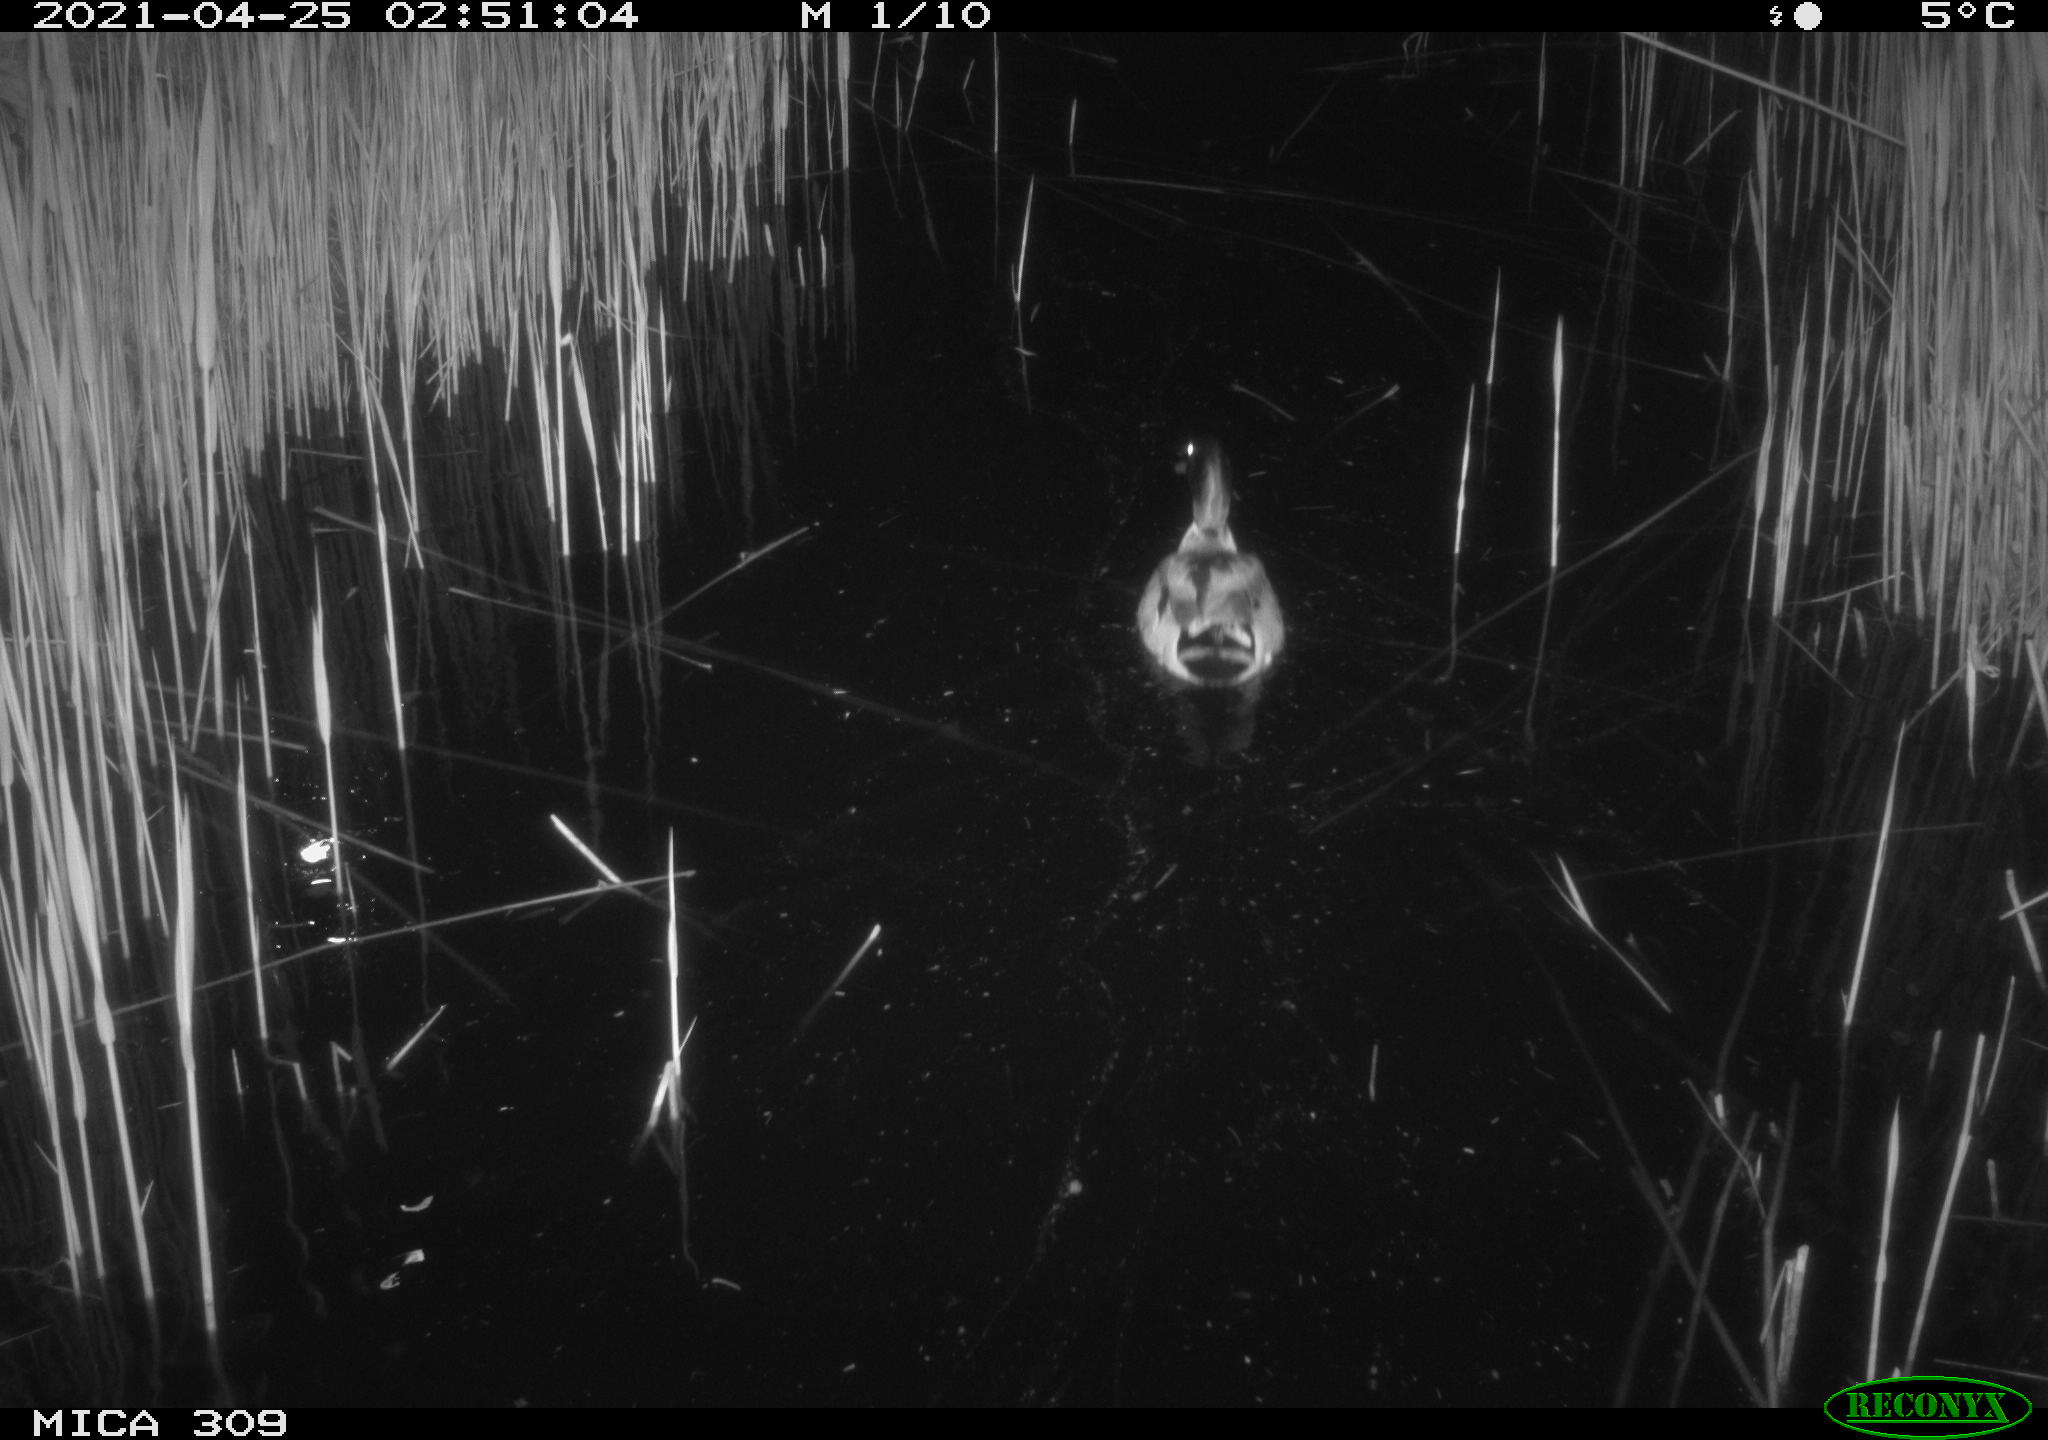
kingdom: Animalia
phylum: Chordata
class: Aves
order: Anseriformes
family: Anatidae
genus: Anas
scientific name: Anas platyrhynchos
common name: Mallard
